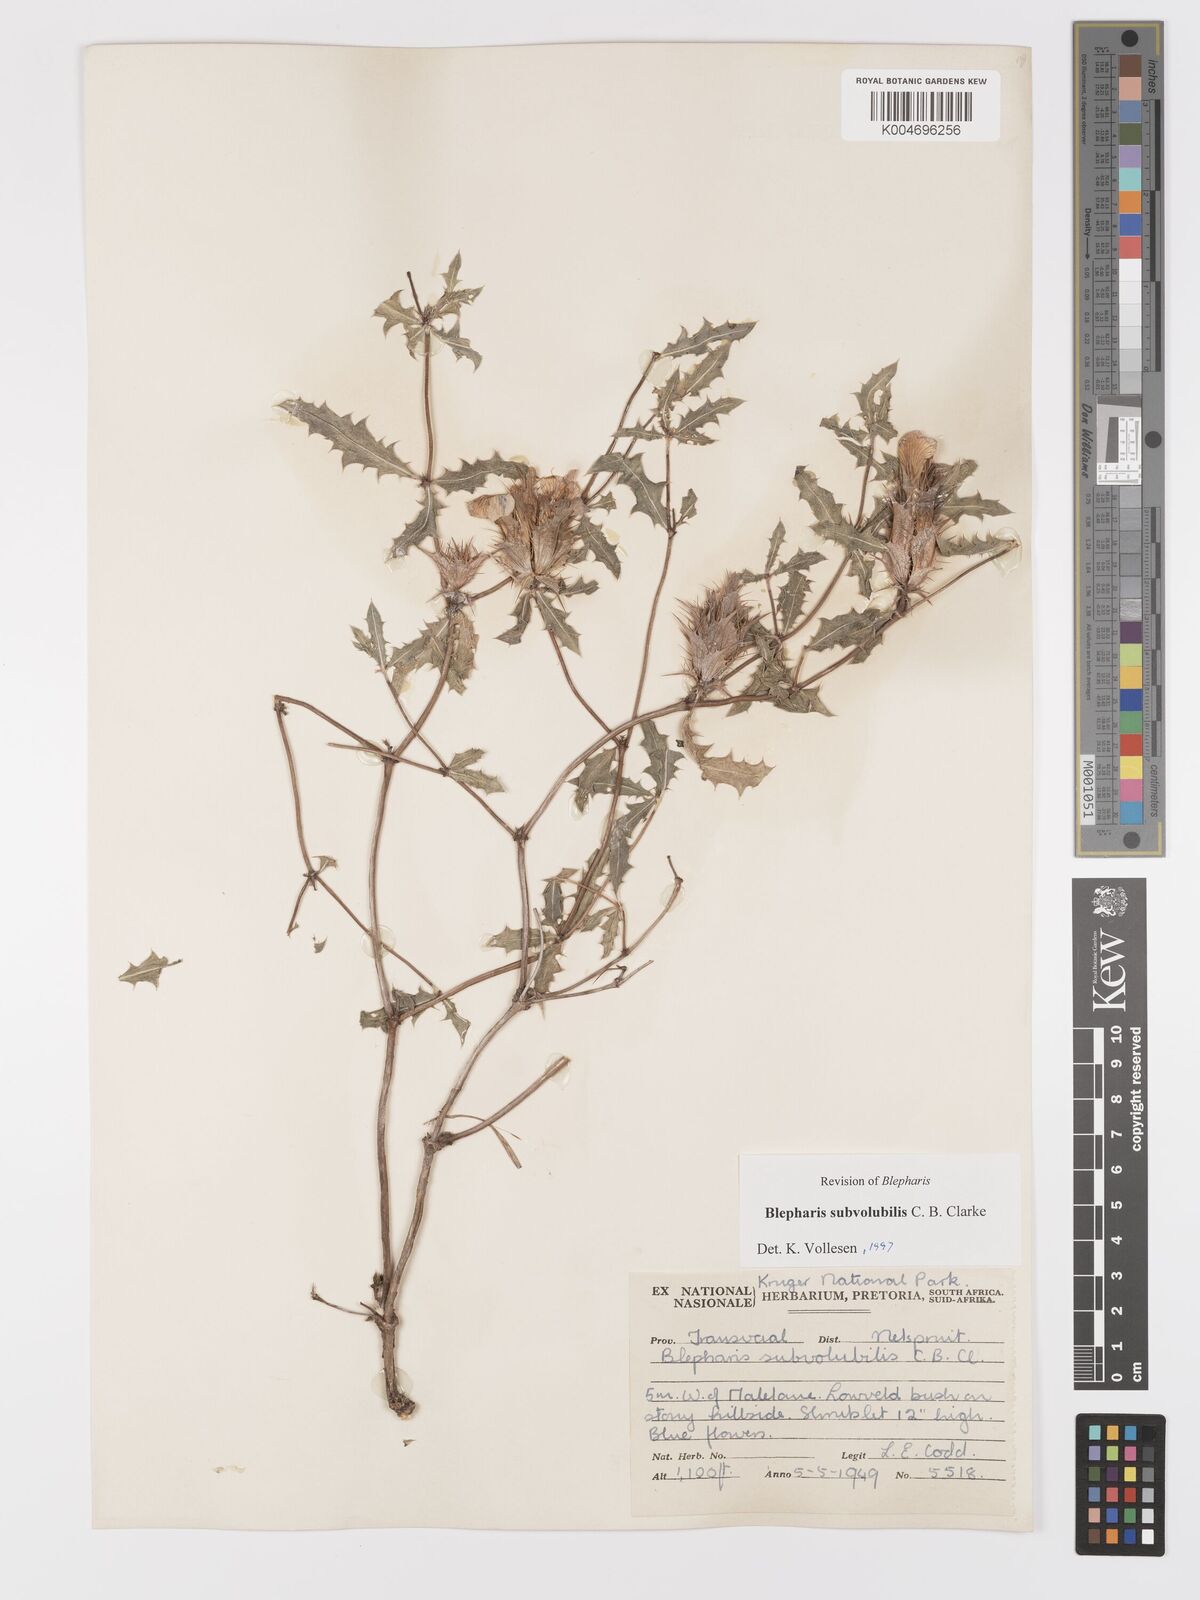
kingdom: Plantae
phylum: Tracheophyta
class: Magnoliopsida
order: Lamiales
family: Acanthaceae
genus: Blepharis
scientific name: Blepharis subvolubilis
